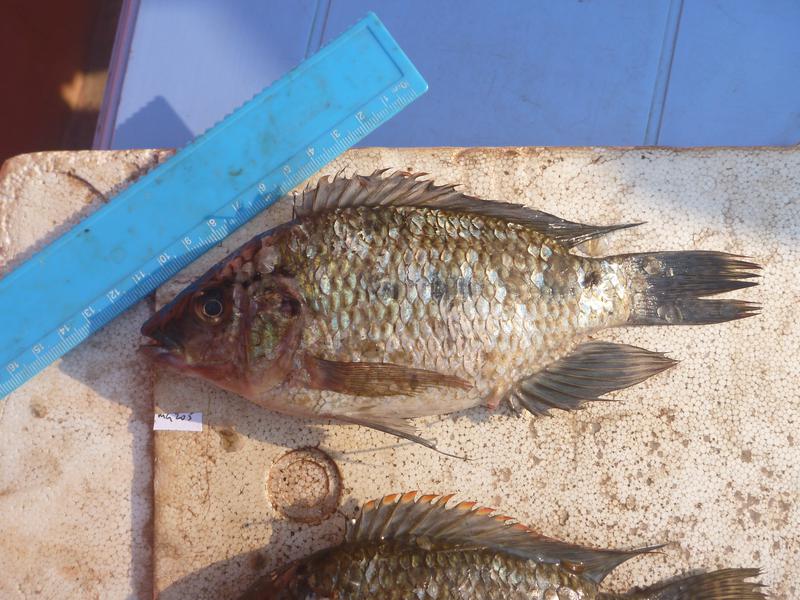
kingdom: Animalia
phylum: Chordata
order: Perciformes
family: Cichlidae
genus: Oreochromis
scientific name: Oreochromis karomo
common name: Karomo
